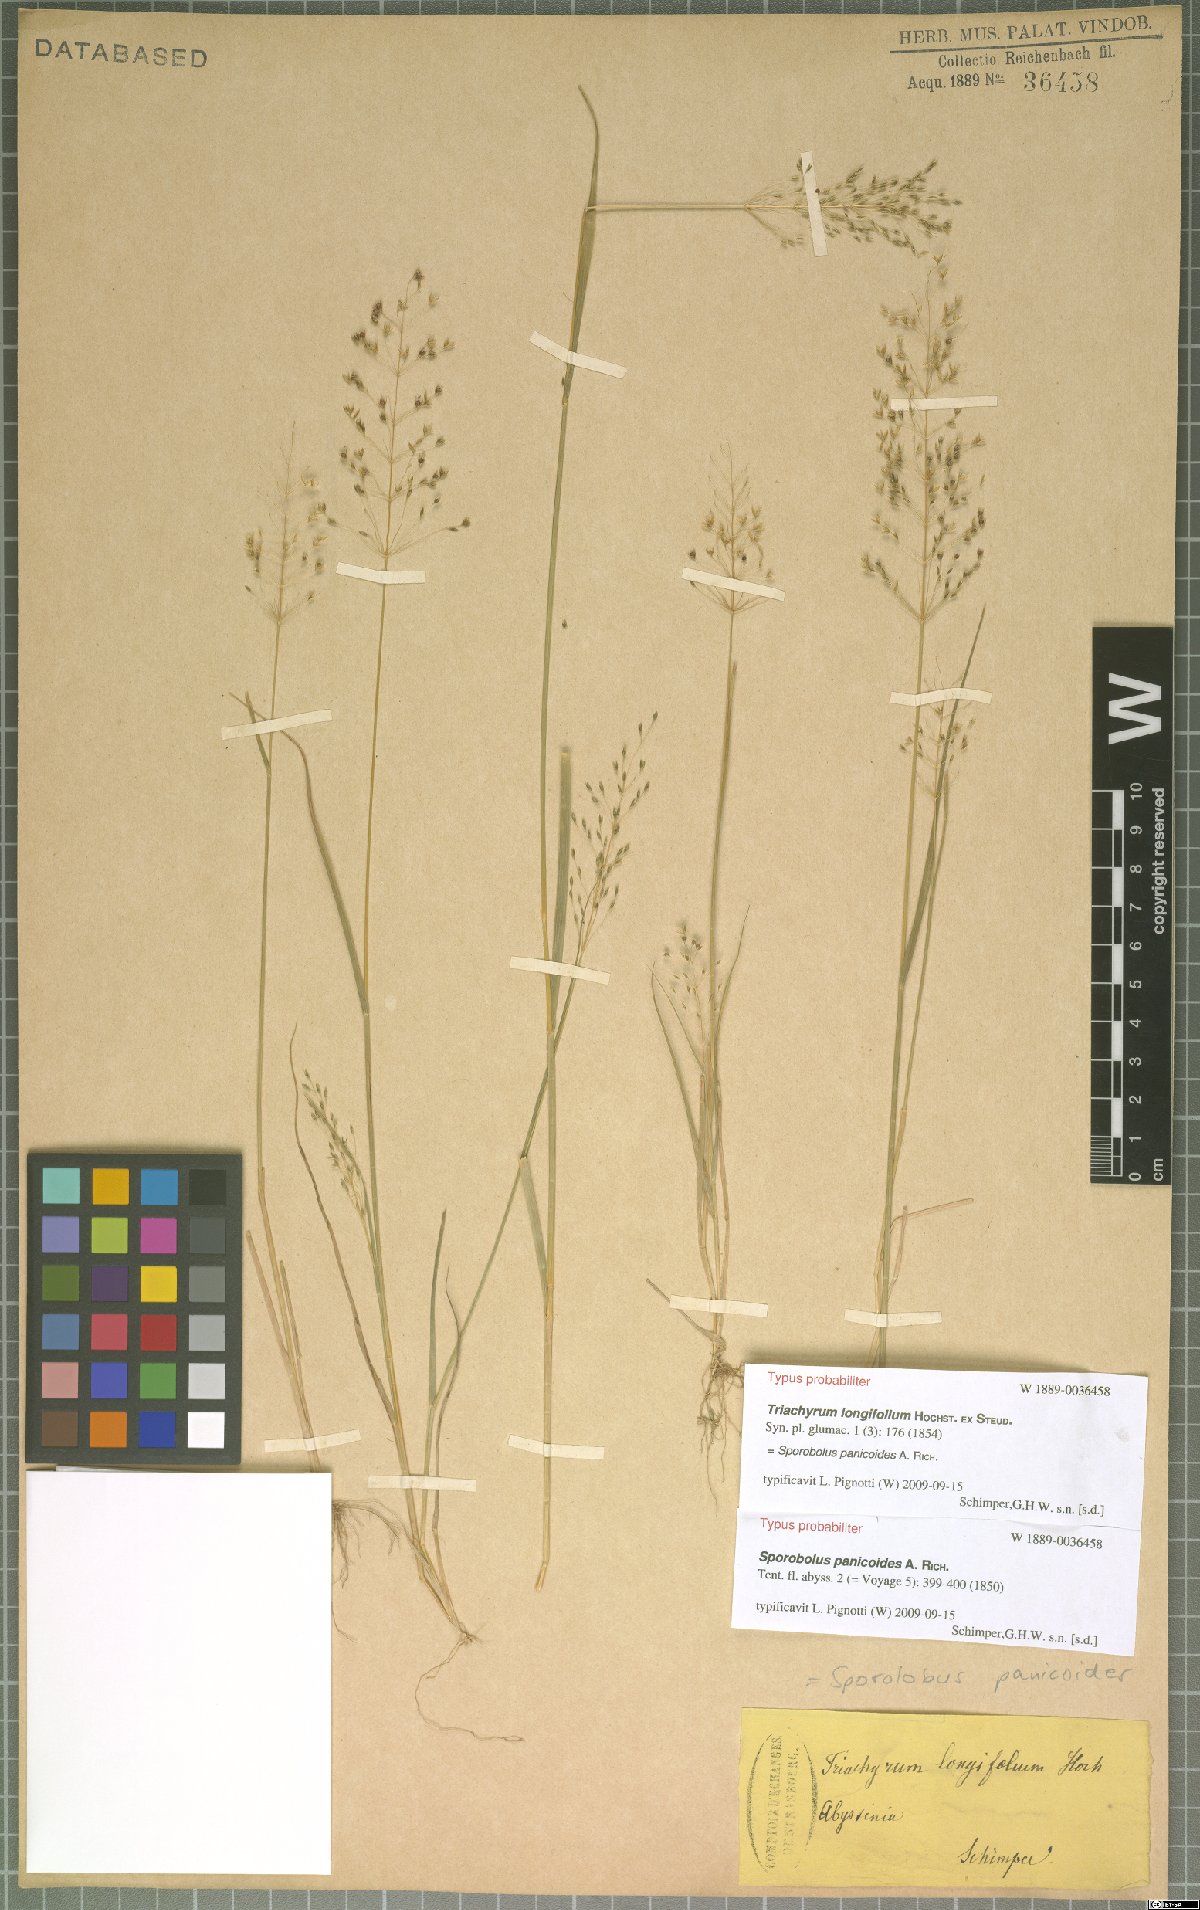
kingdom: Plantae
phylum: Tracheophyta
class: Liliopsida
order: Poales
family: Poaceae
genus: Sporobolus
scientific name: Sporobolus panicoides
